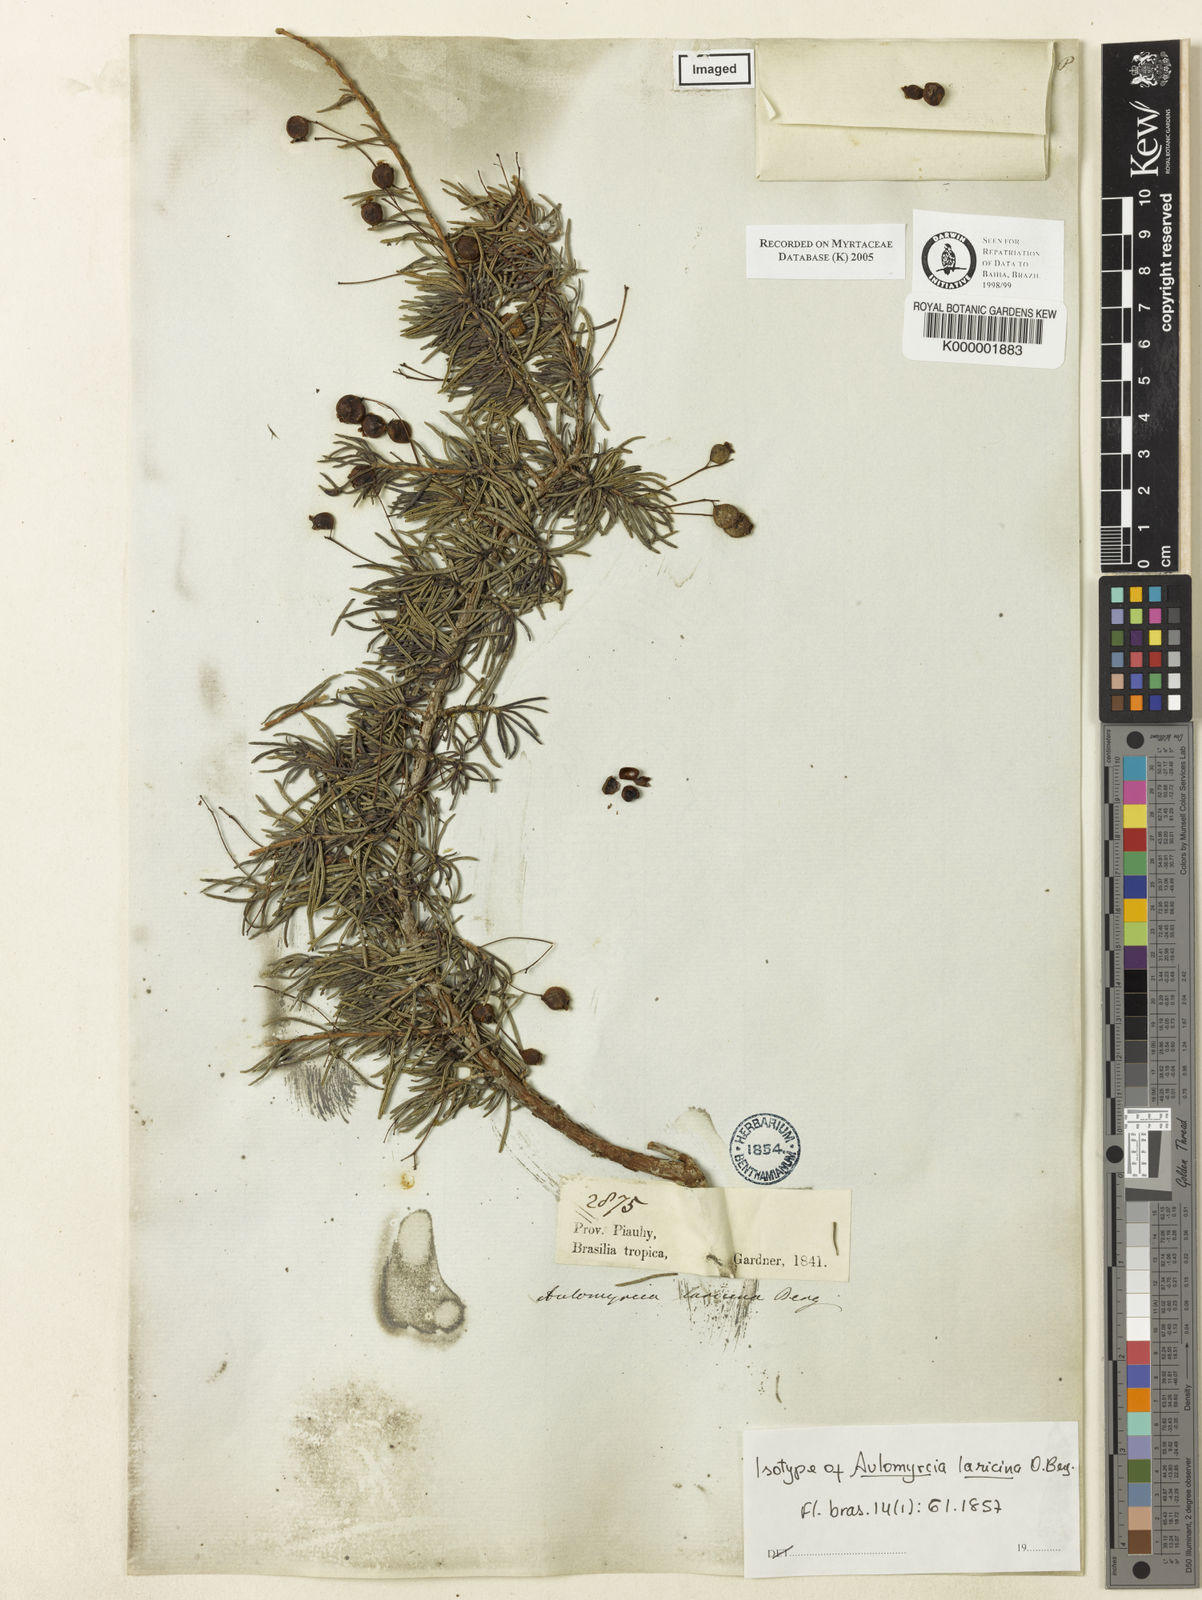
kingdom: Plantae
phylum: Tracheophyta
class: Magnoliopsida
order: Myrtales
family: Myrtaceae
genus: Myrcia
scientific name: Myrcia laricina
